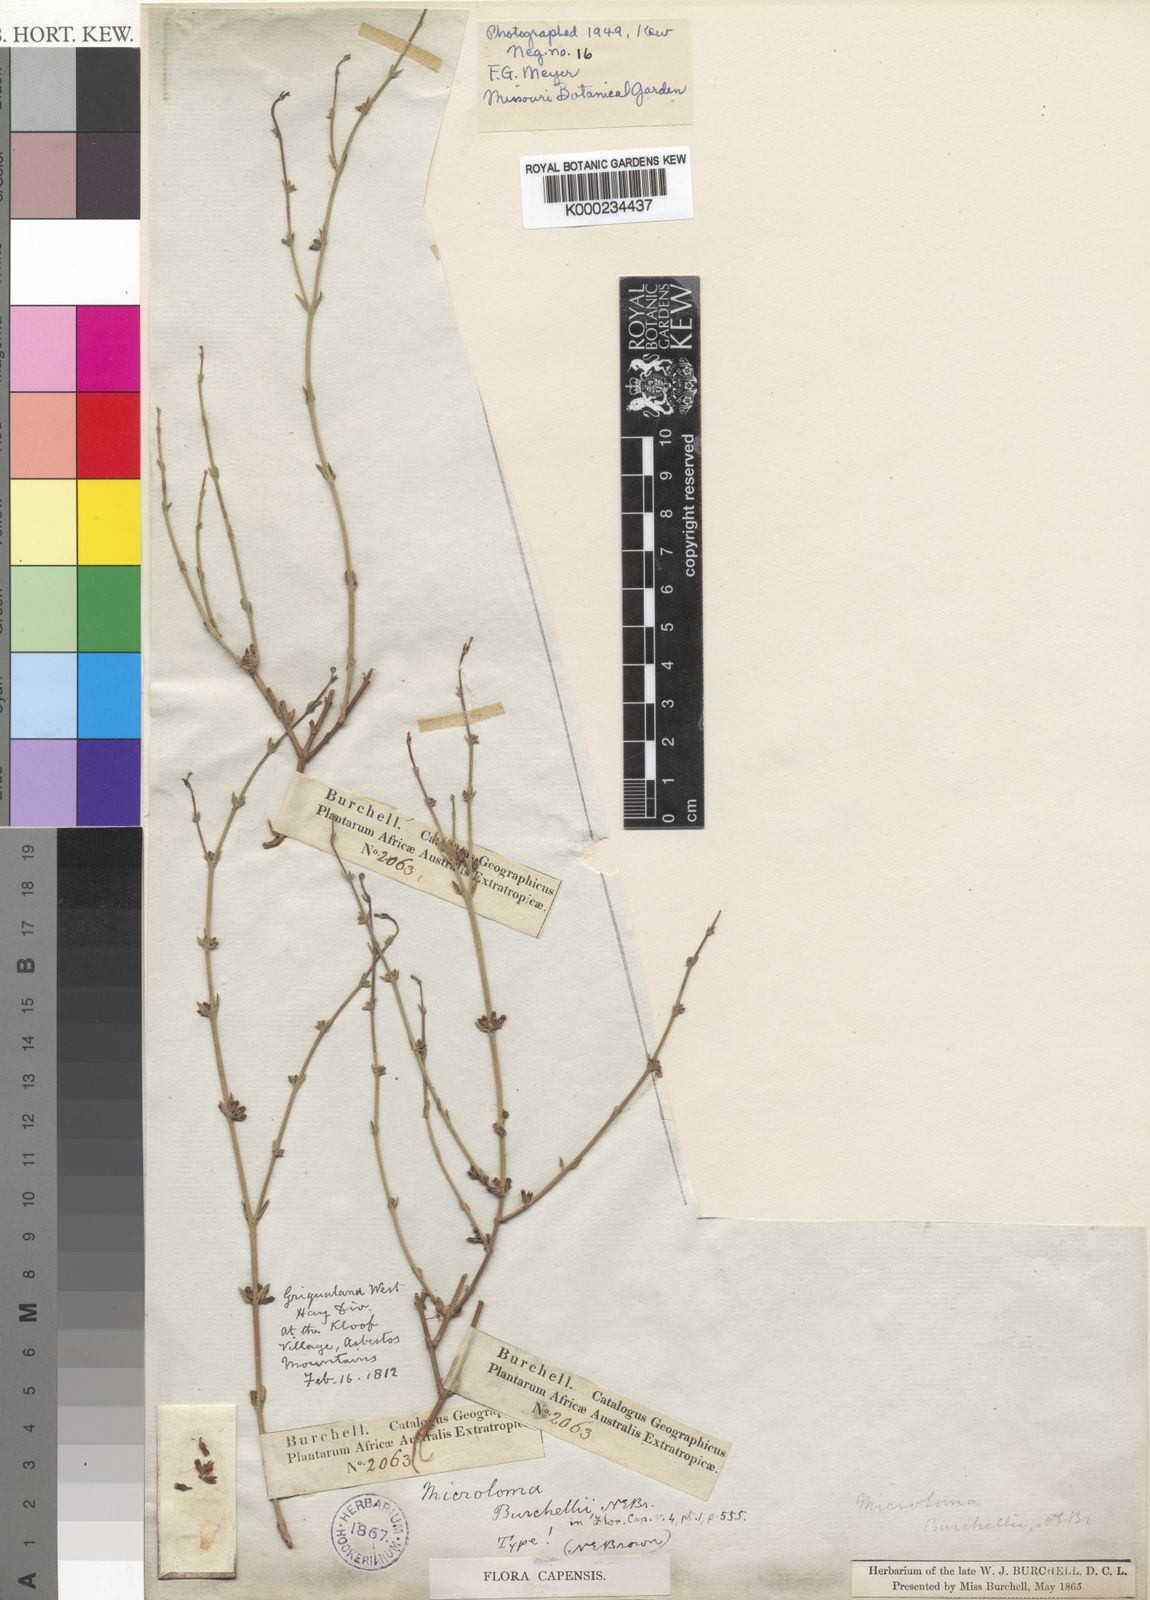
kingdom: Plantae
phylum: Tracheophyta
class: Magnoliopsida
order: Gentianales
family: Apocynaceae
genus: Microloma
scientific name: Microloma armatum
